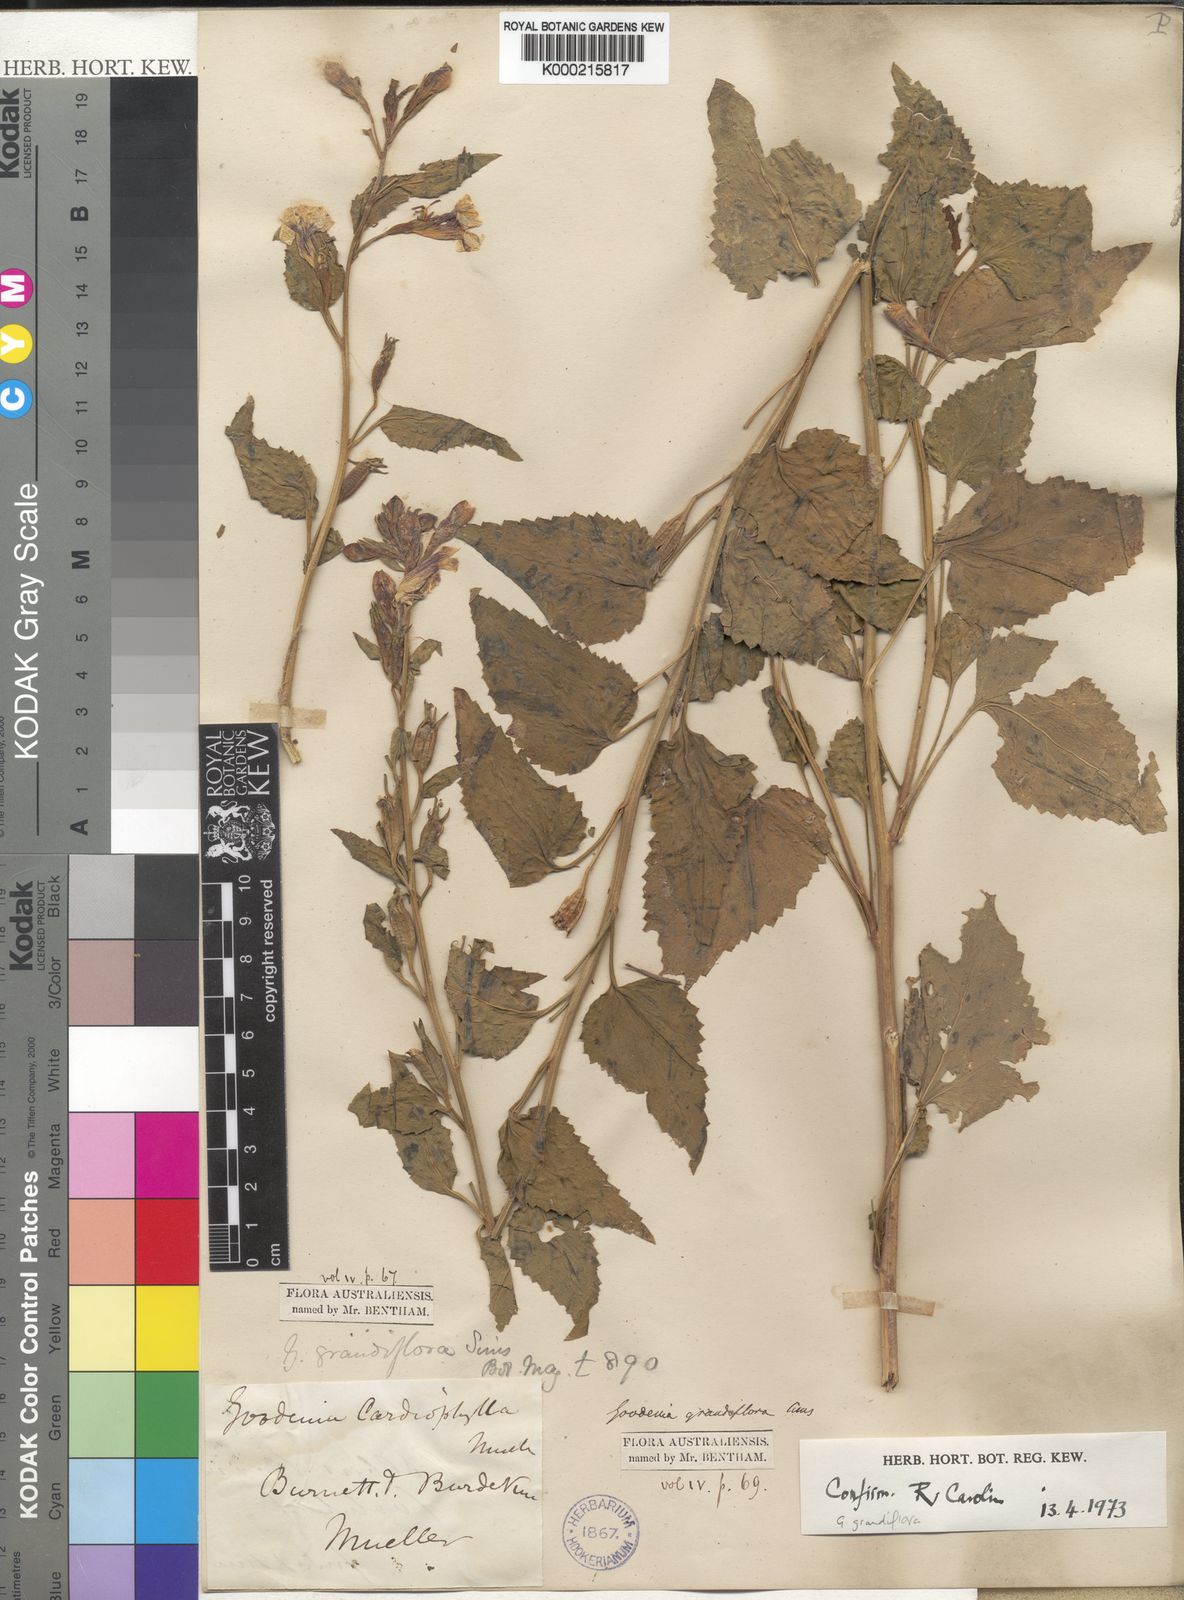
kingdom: Plantae
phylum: Tracheophyta
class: Magnoliopsida
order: Asterales
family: Goodeniaceae
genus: Goodenia
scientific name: Goodenia
